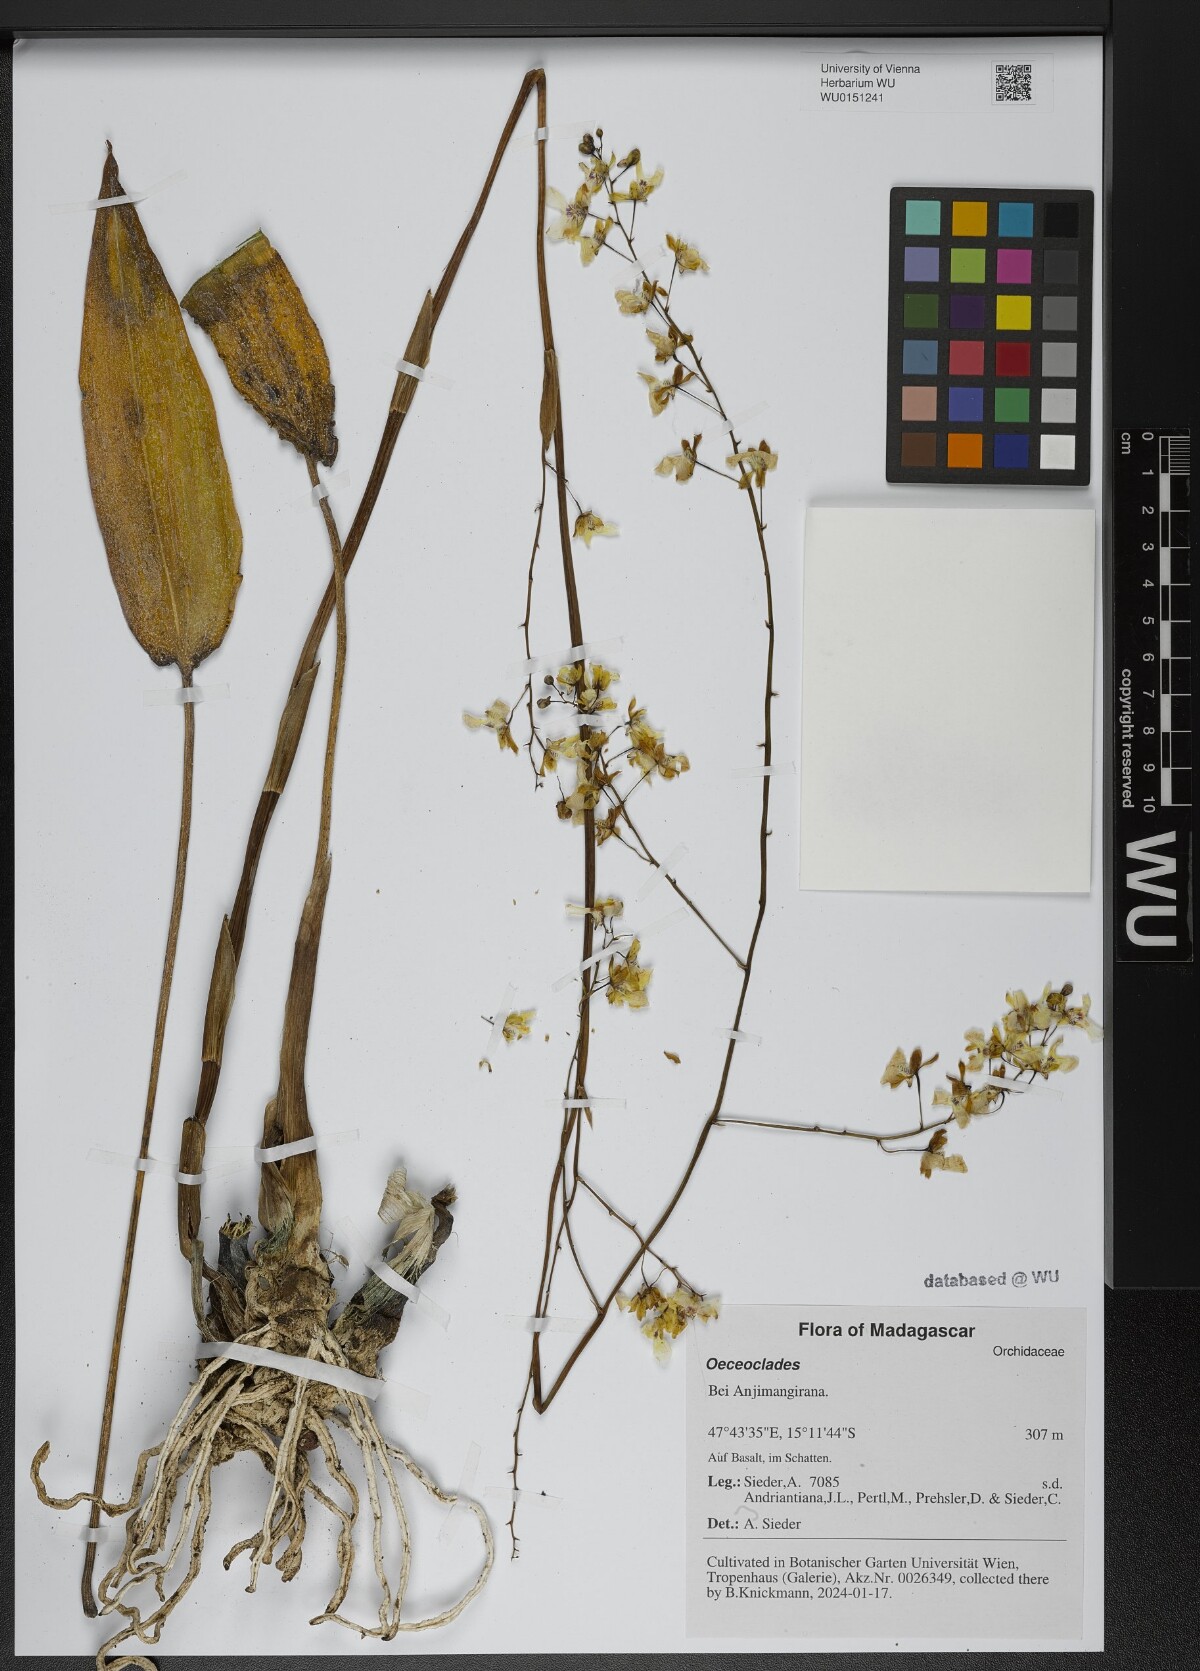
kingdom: Plantae
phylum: Tracheophyta
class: Liliopsida
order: Asparagales
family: Orchidaceae
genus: Eulophia
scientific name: Eulophia
